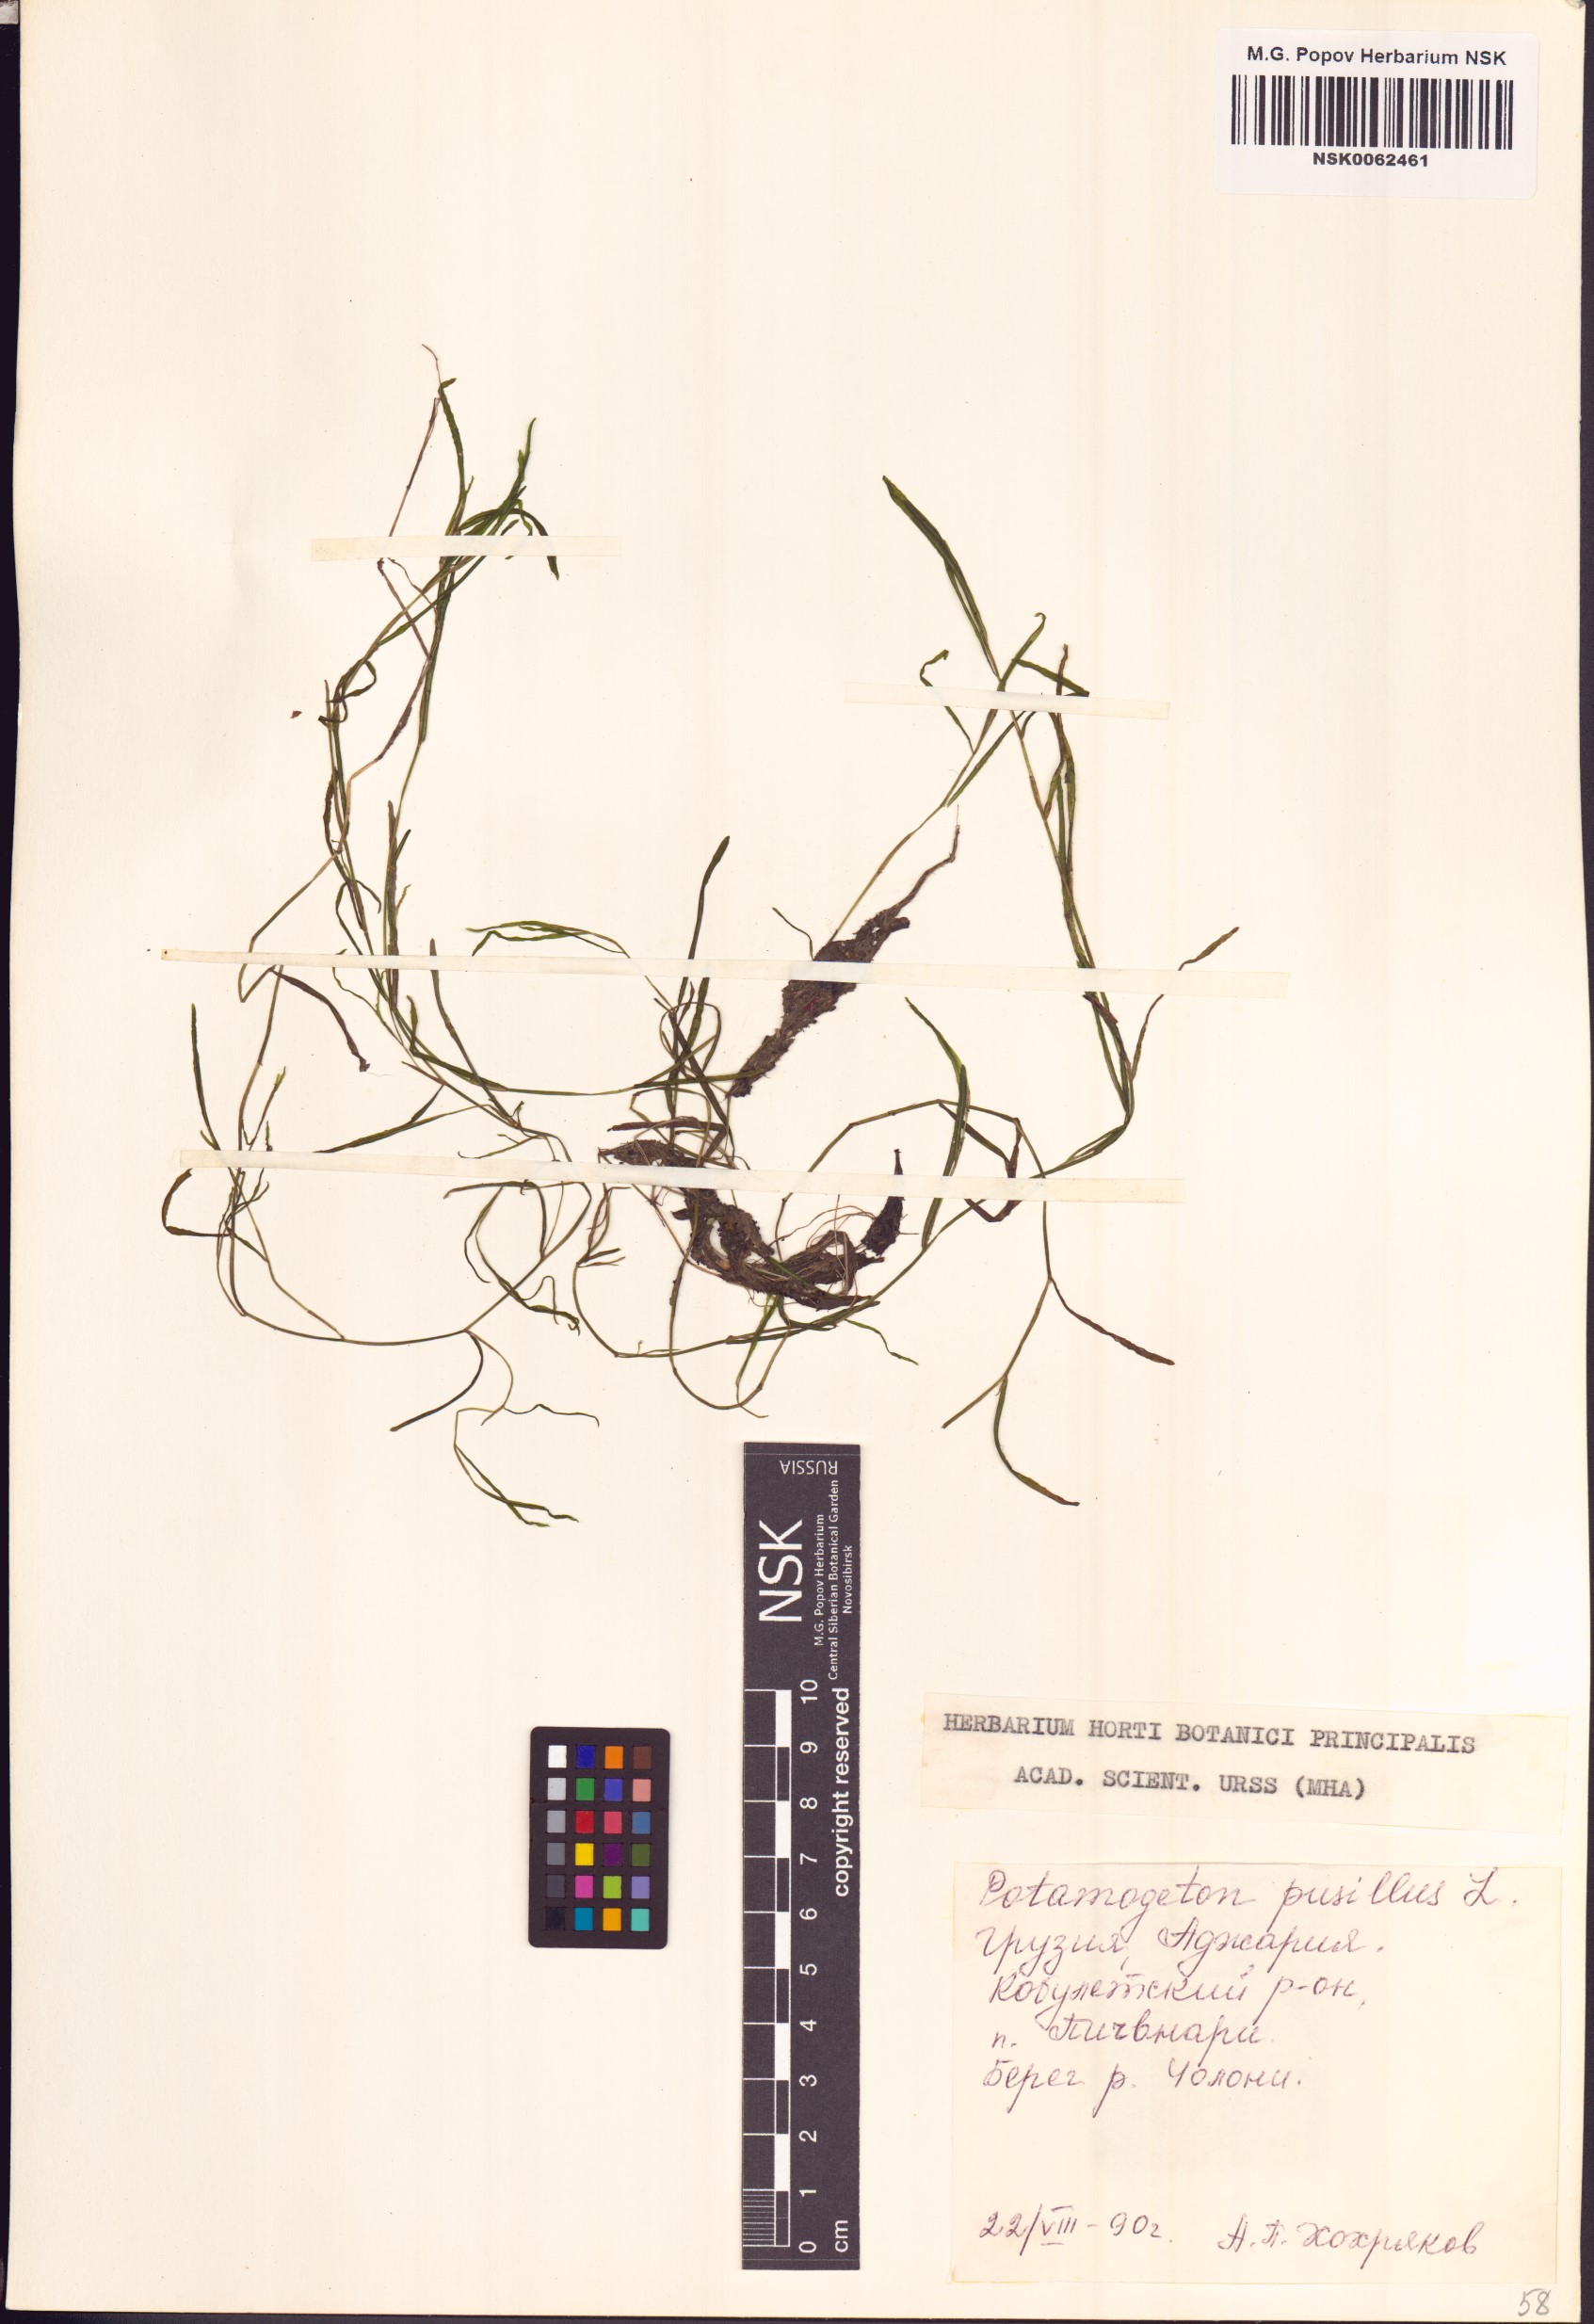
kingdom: Plantae
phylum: Tracheophyta
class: Liliopsida
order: Alismatales
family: Potamogetonaceae
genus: Potamogeton
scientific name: Potamogeton pusillus
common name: Lesser pondweed
